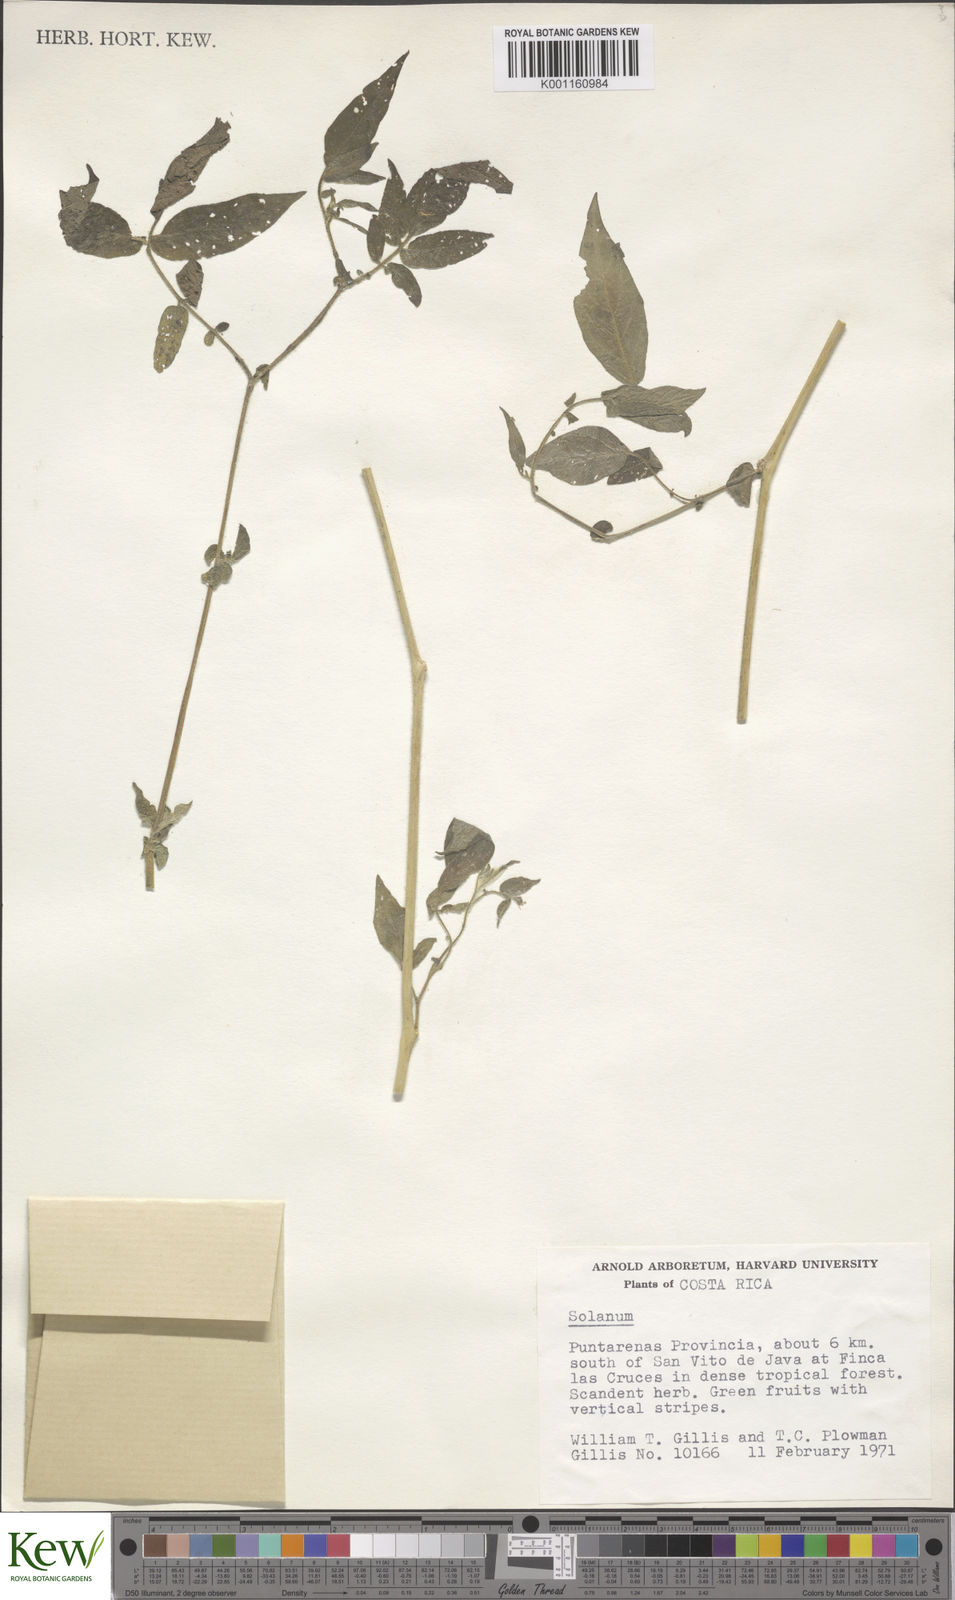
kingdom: Plantae
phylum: Tracheophyta
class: Magnoliopsida
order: Solanales
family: Solanaceae
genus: Solanum
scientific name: Solanum
